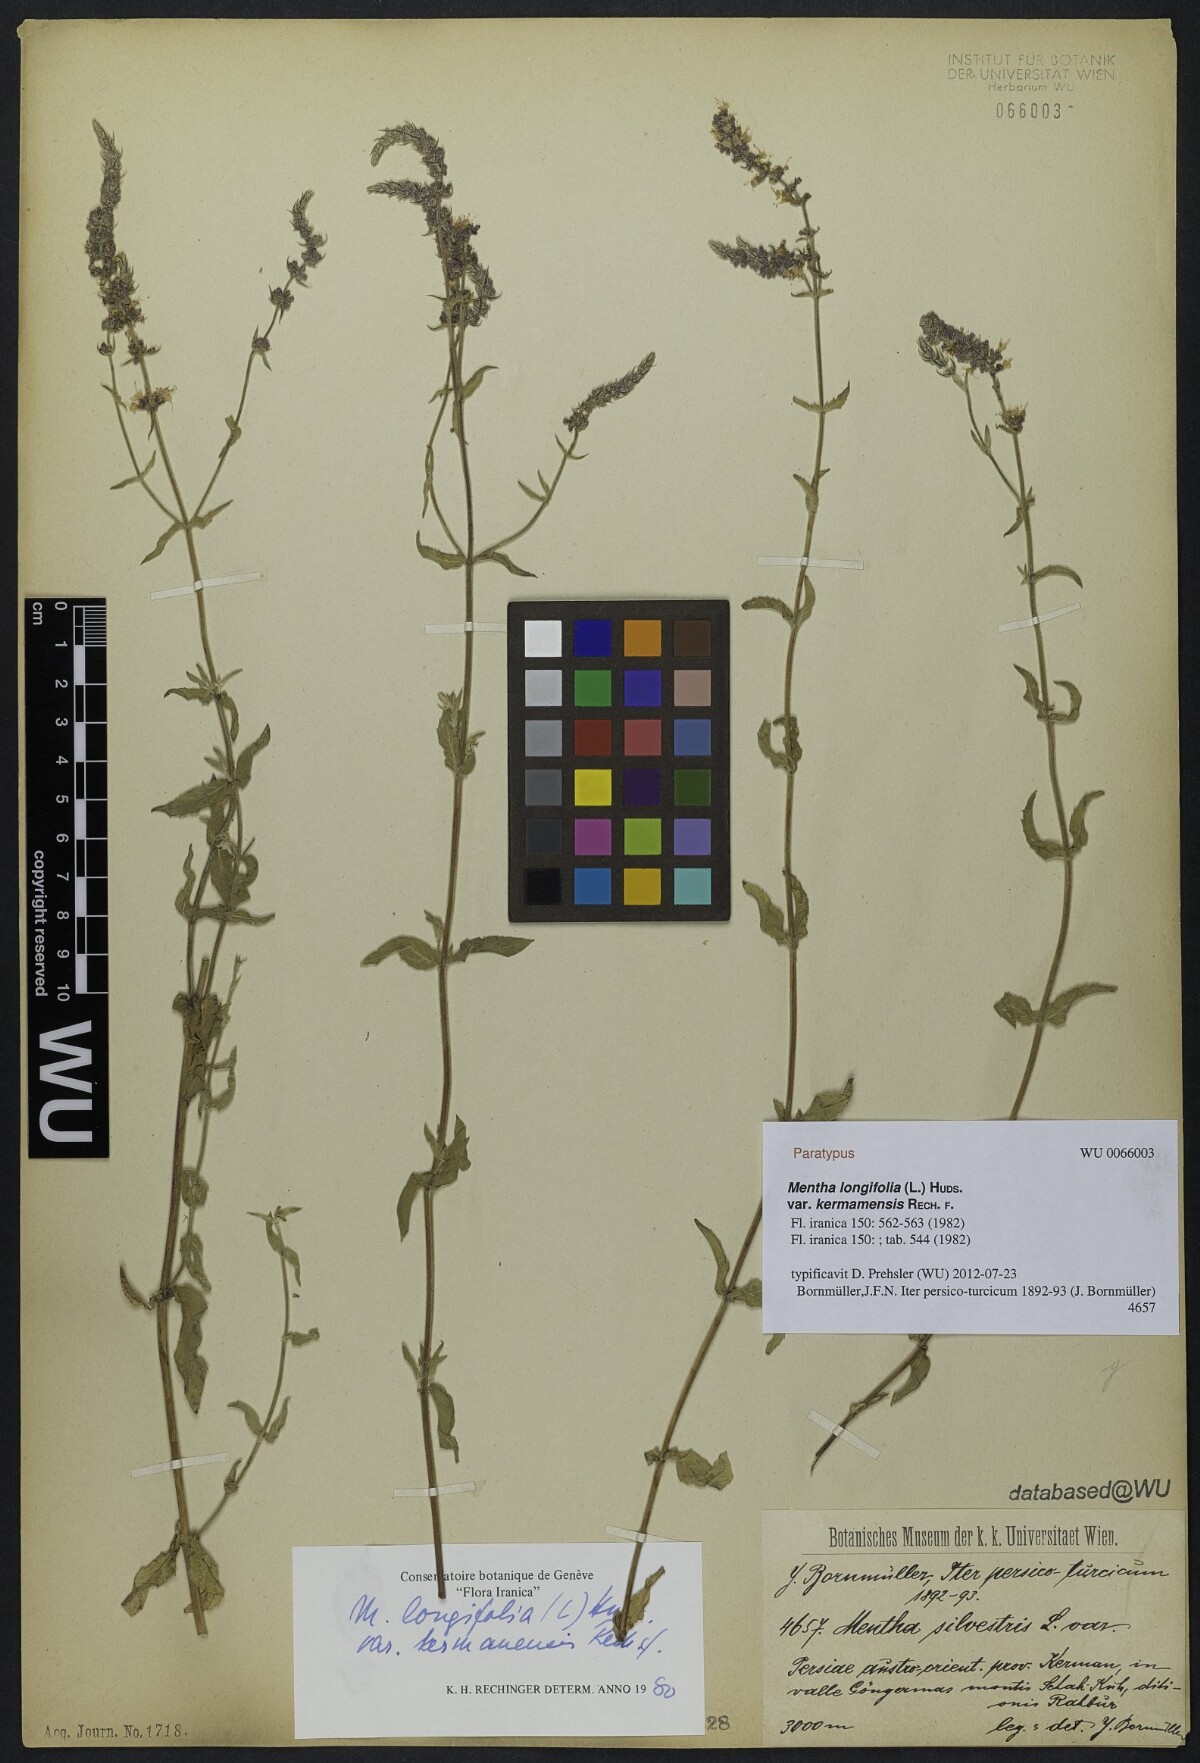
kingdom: Plantae
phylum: Tracheophyta
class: Magnoliopsida
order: Lamiales
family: Lamiaceae
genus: Mentha
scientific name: Mentha longifolia
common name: Horse mint
